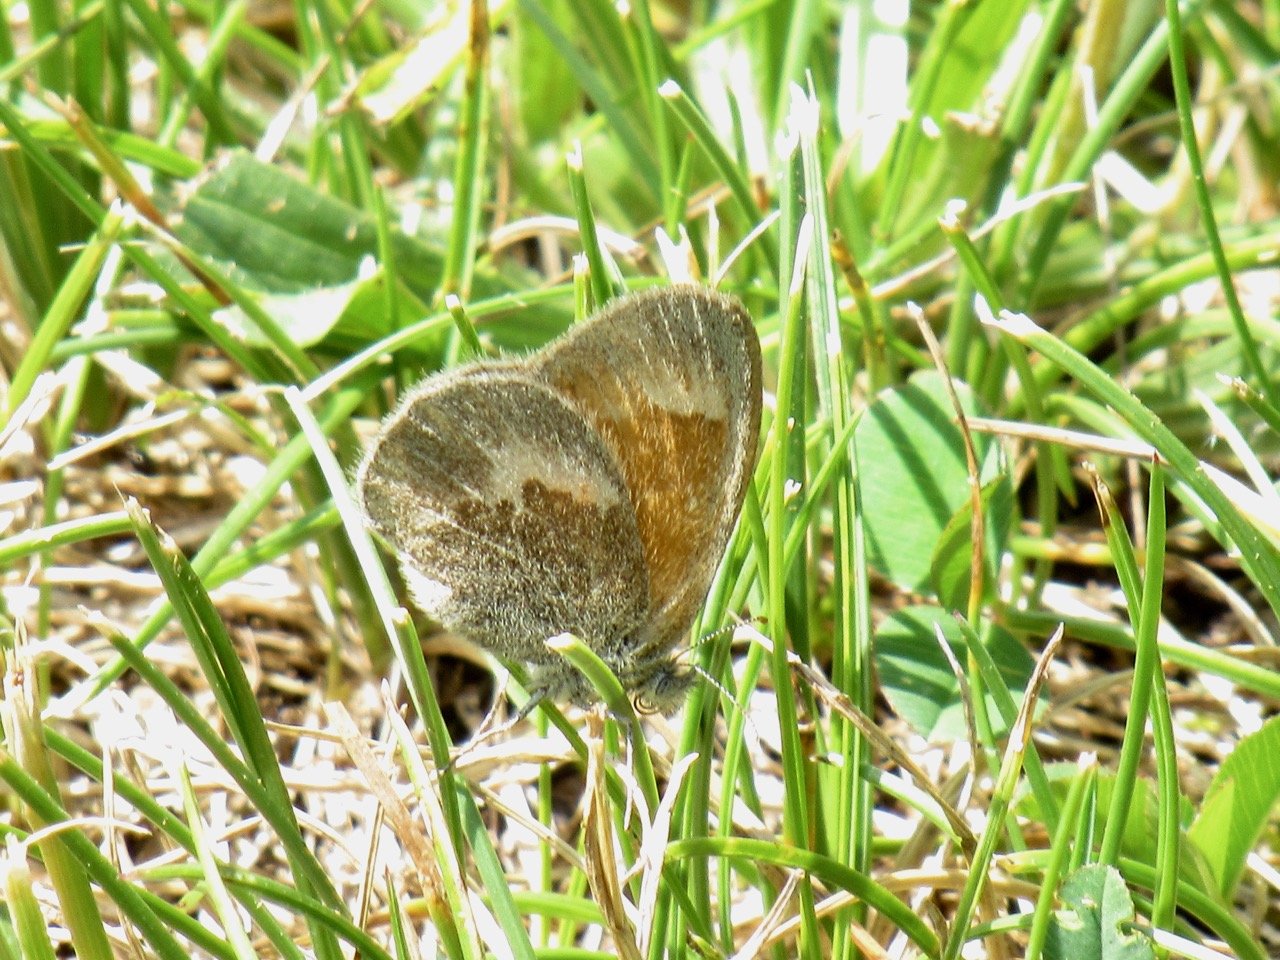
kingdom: Animalia
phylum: Arthropoda
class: Insecta
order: Lepidoptera
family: Nymphalidae
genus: Coenonympha
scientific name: Coenonympha tullia
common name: Large Heath
